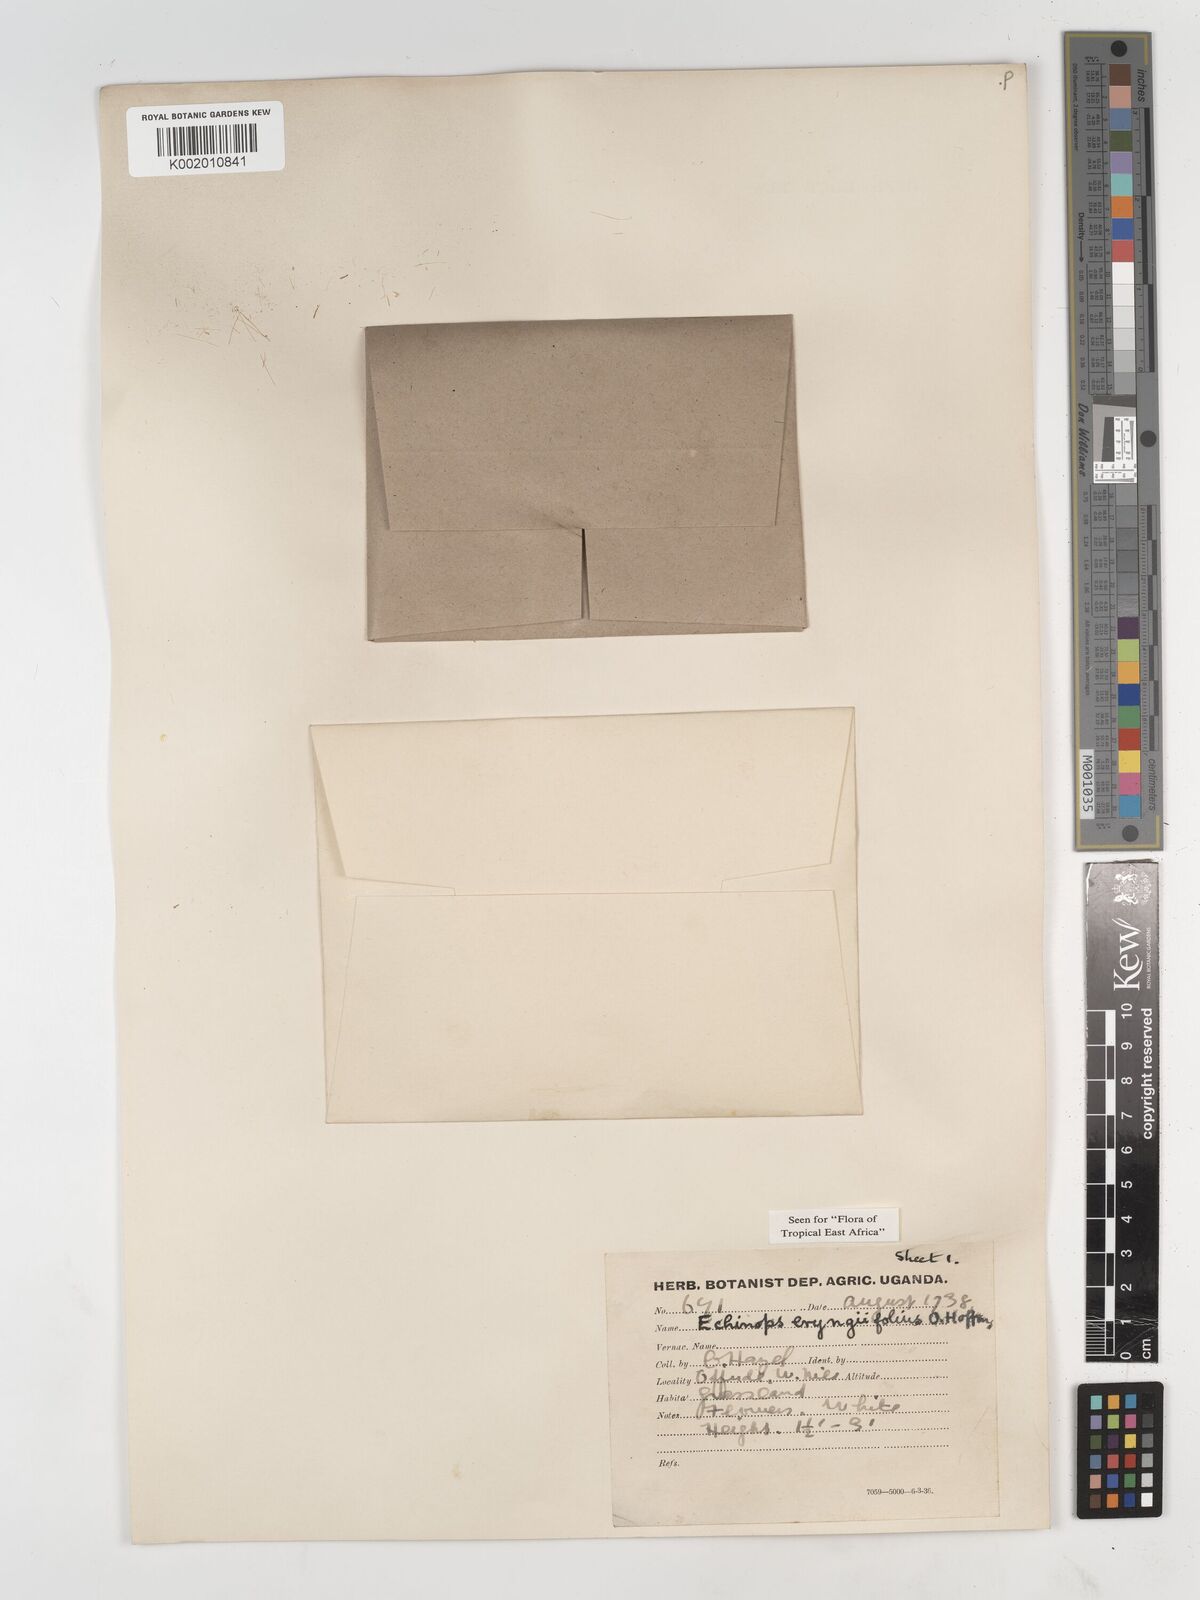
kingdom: Plantae
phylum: Tracheophyta
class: Magnoliopsida
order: Asterales
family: Asteraceae
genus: Echinops
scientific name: Echinops eryngiifolius
